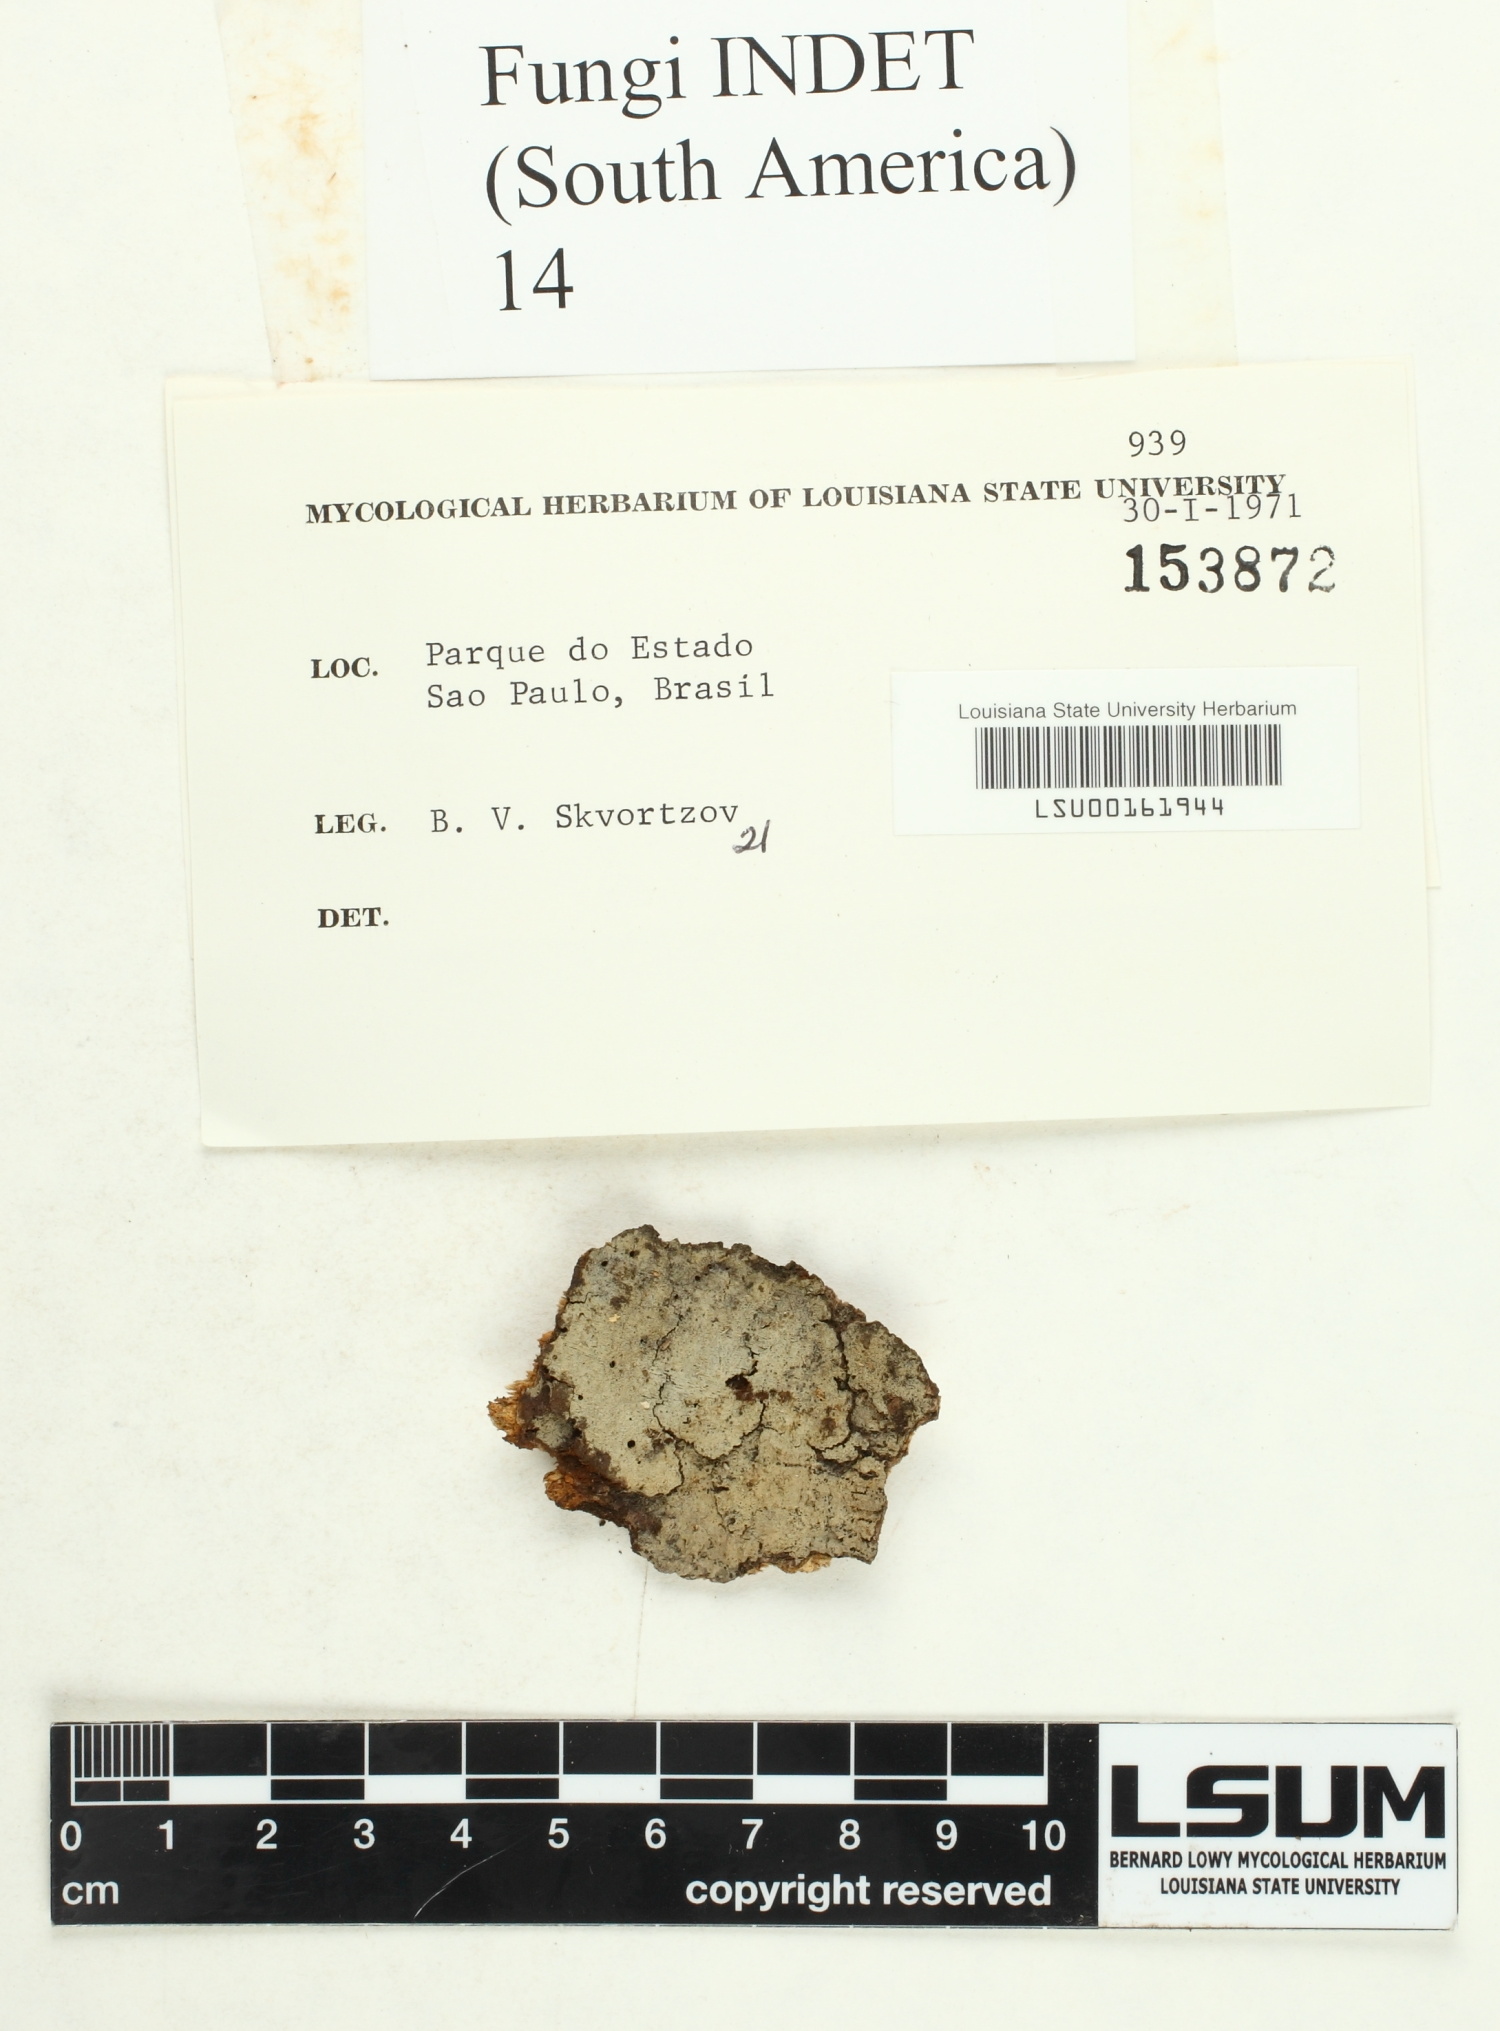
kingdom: Fungi
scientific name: Fungi
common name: Fungi
